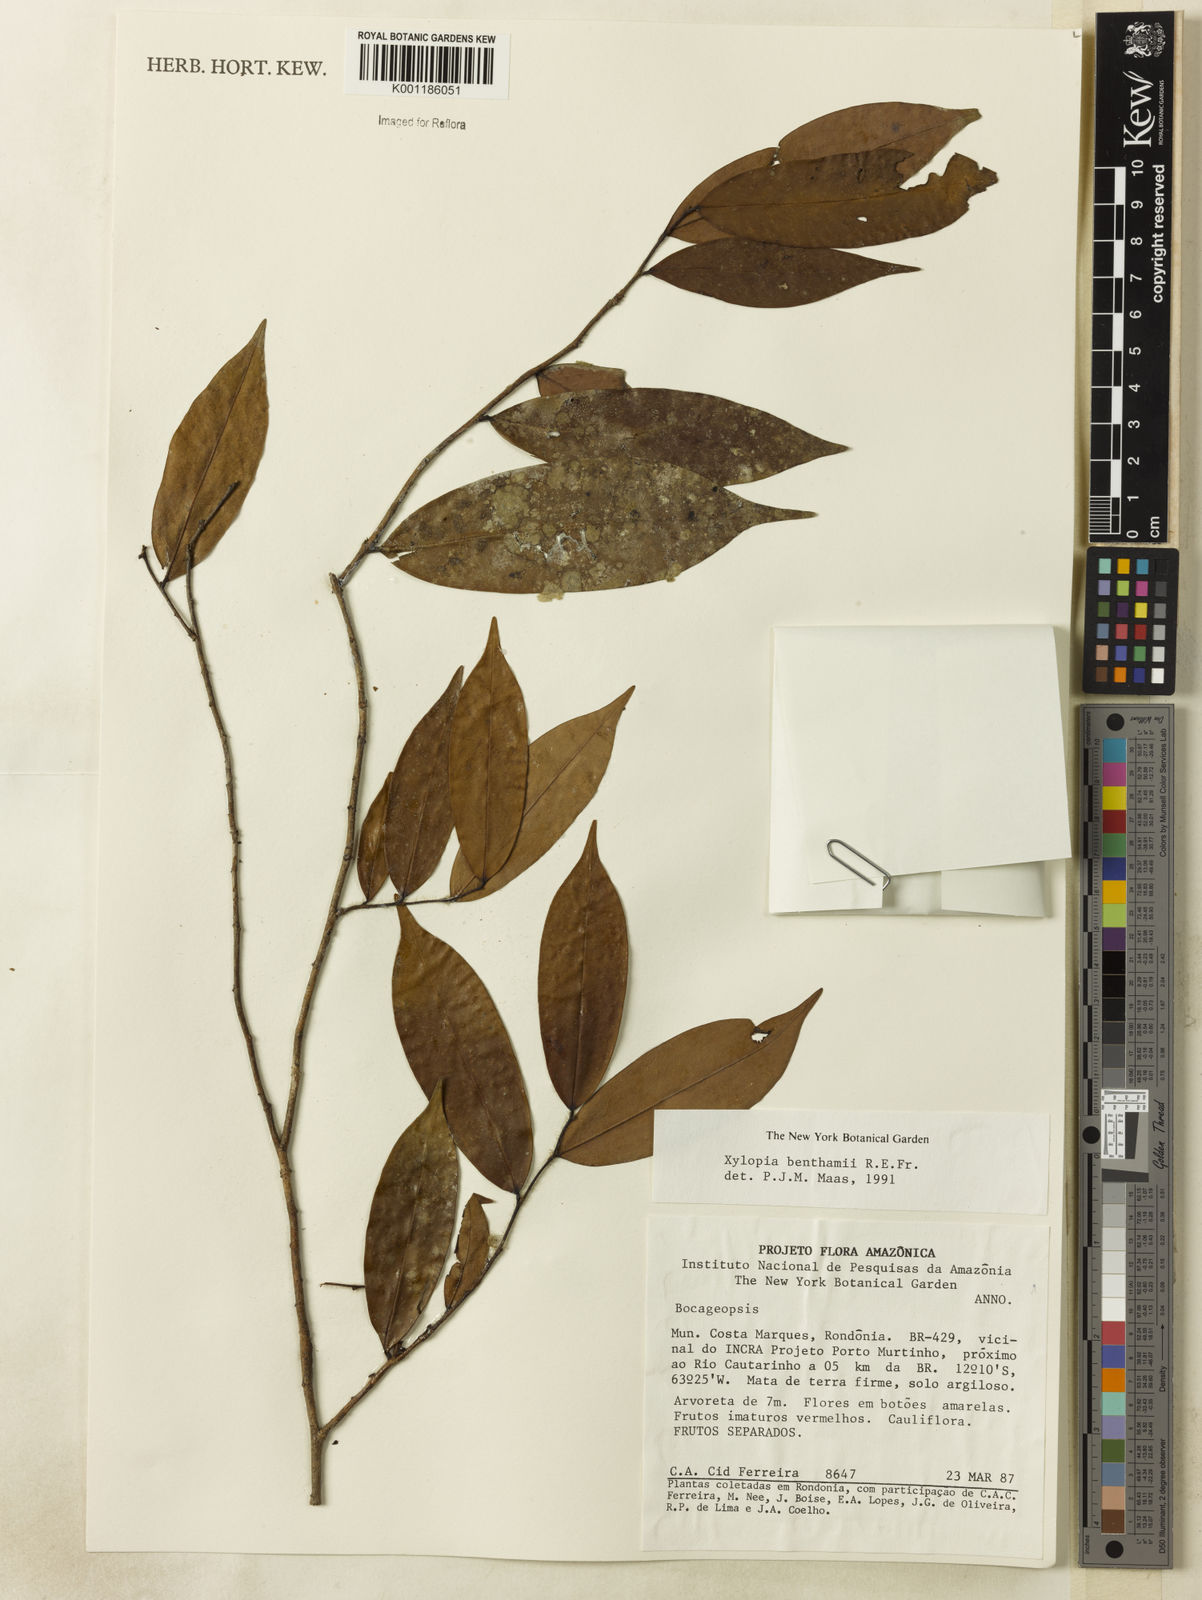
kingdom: Plantae
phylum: Tracheophyta
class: Magnoliopsida
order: Magnoliales
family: Annonaceae
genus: Xylopia
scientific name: Xylopia benthamii
